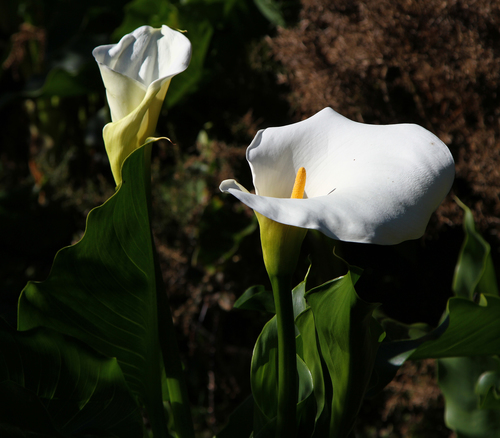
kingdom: Plantae
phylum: Tracheophyta
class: Liliopsida
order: Alismatales
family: Araceae
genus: Zantedeschia
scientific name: Zantedeschia aethiopica
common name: Altar-lily
